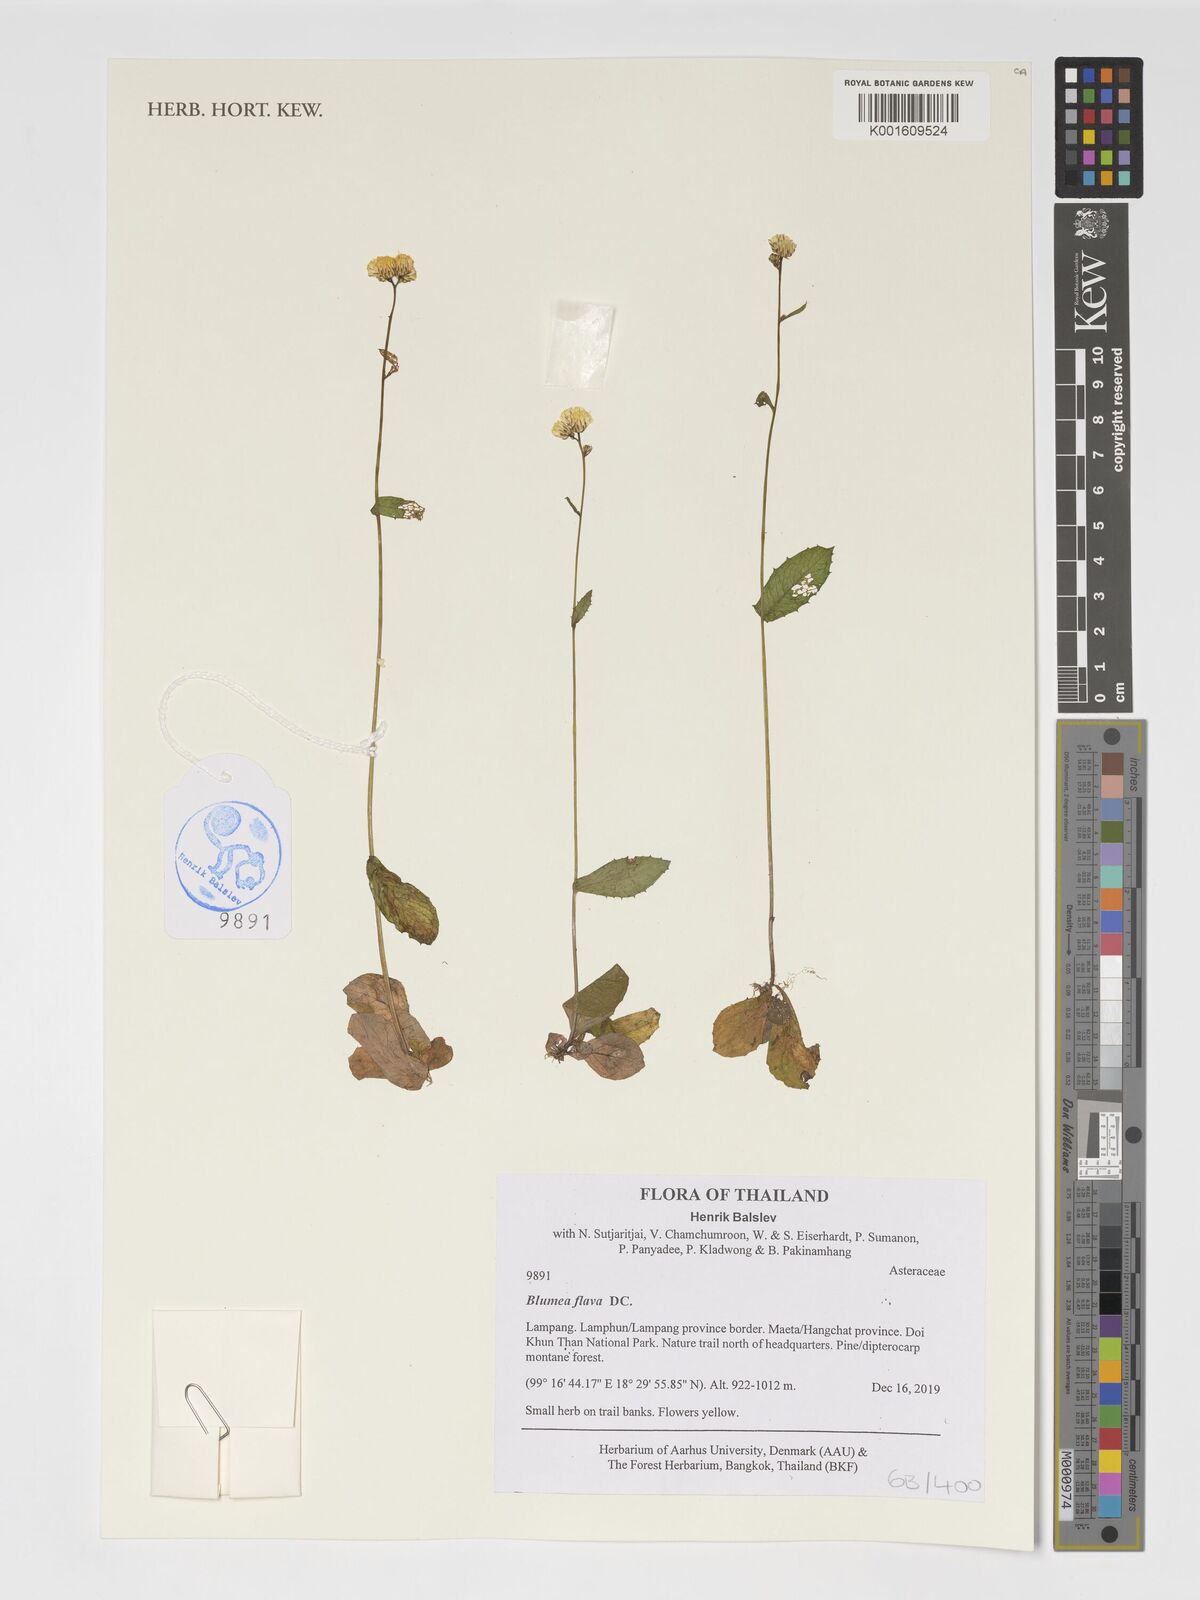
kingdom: Plantae
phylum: Tracheophyta
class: Magnoliopsida
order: Asterales
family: Asteraceae
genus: Blumeopsis
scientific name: Blumeopsis flava
